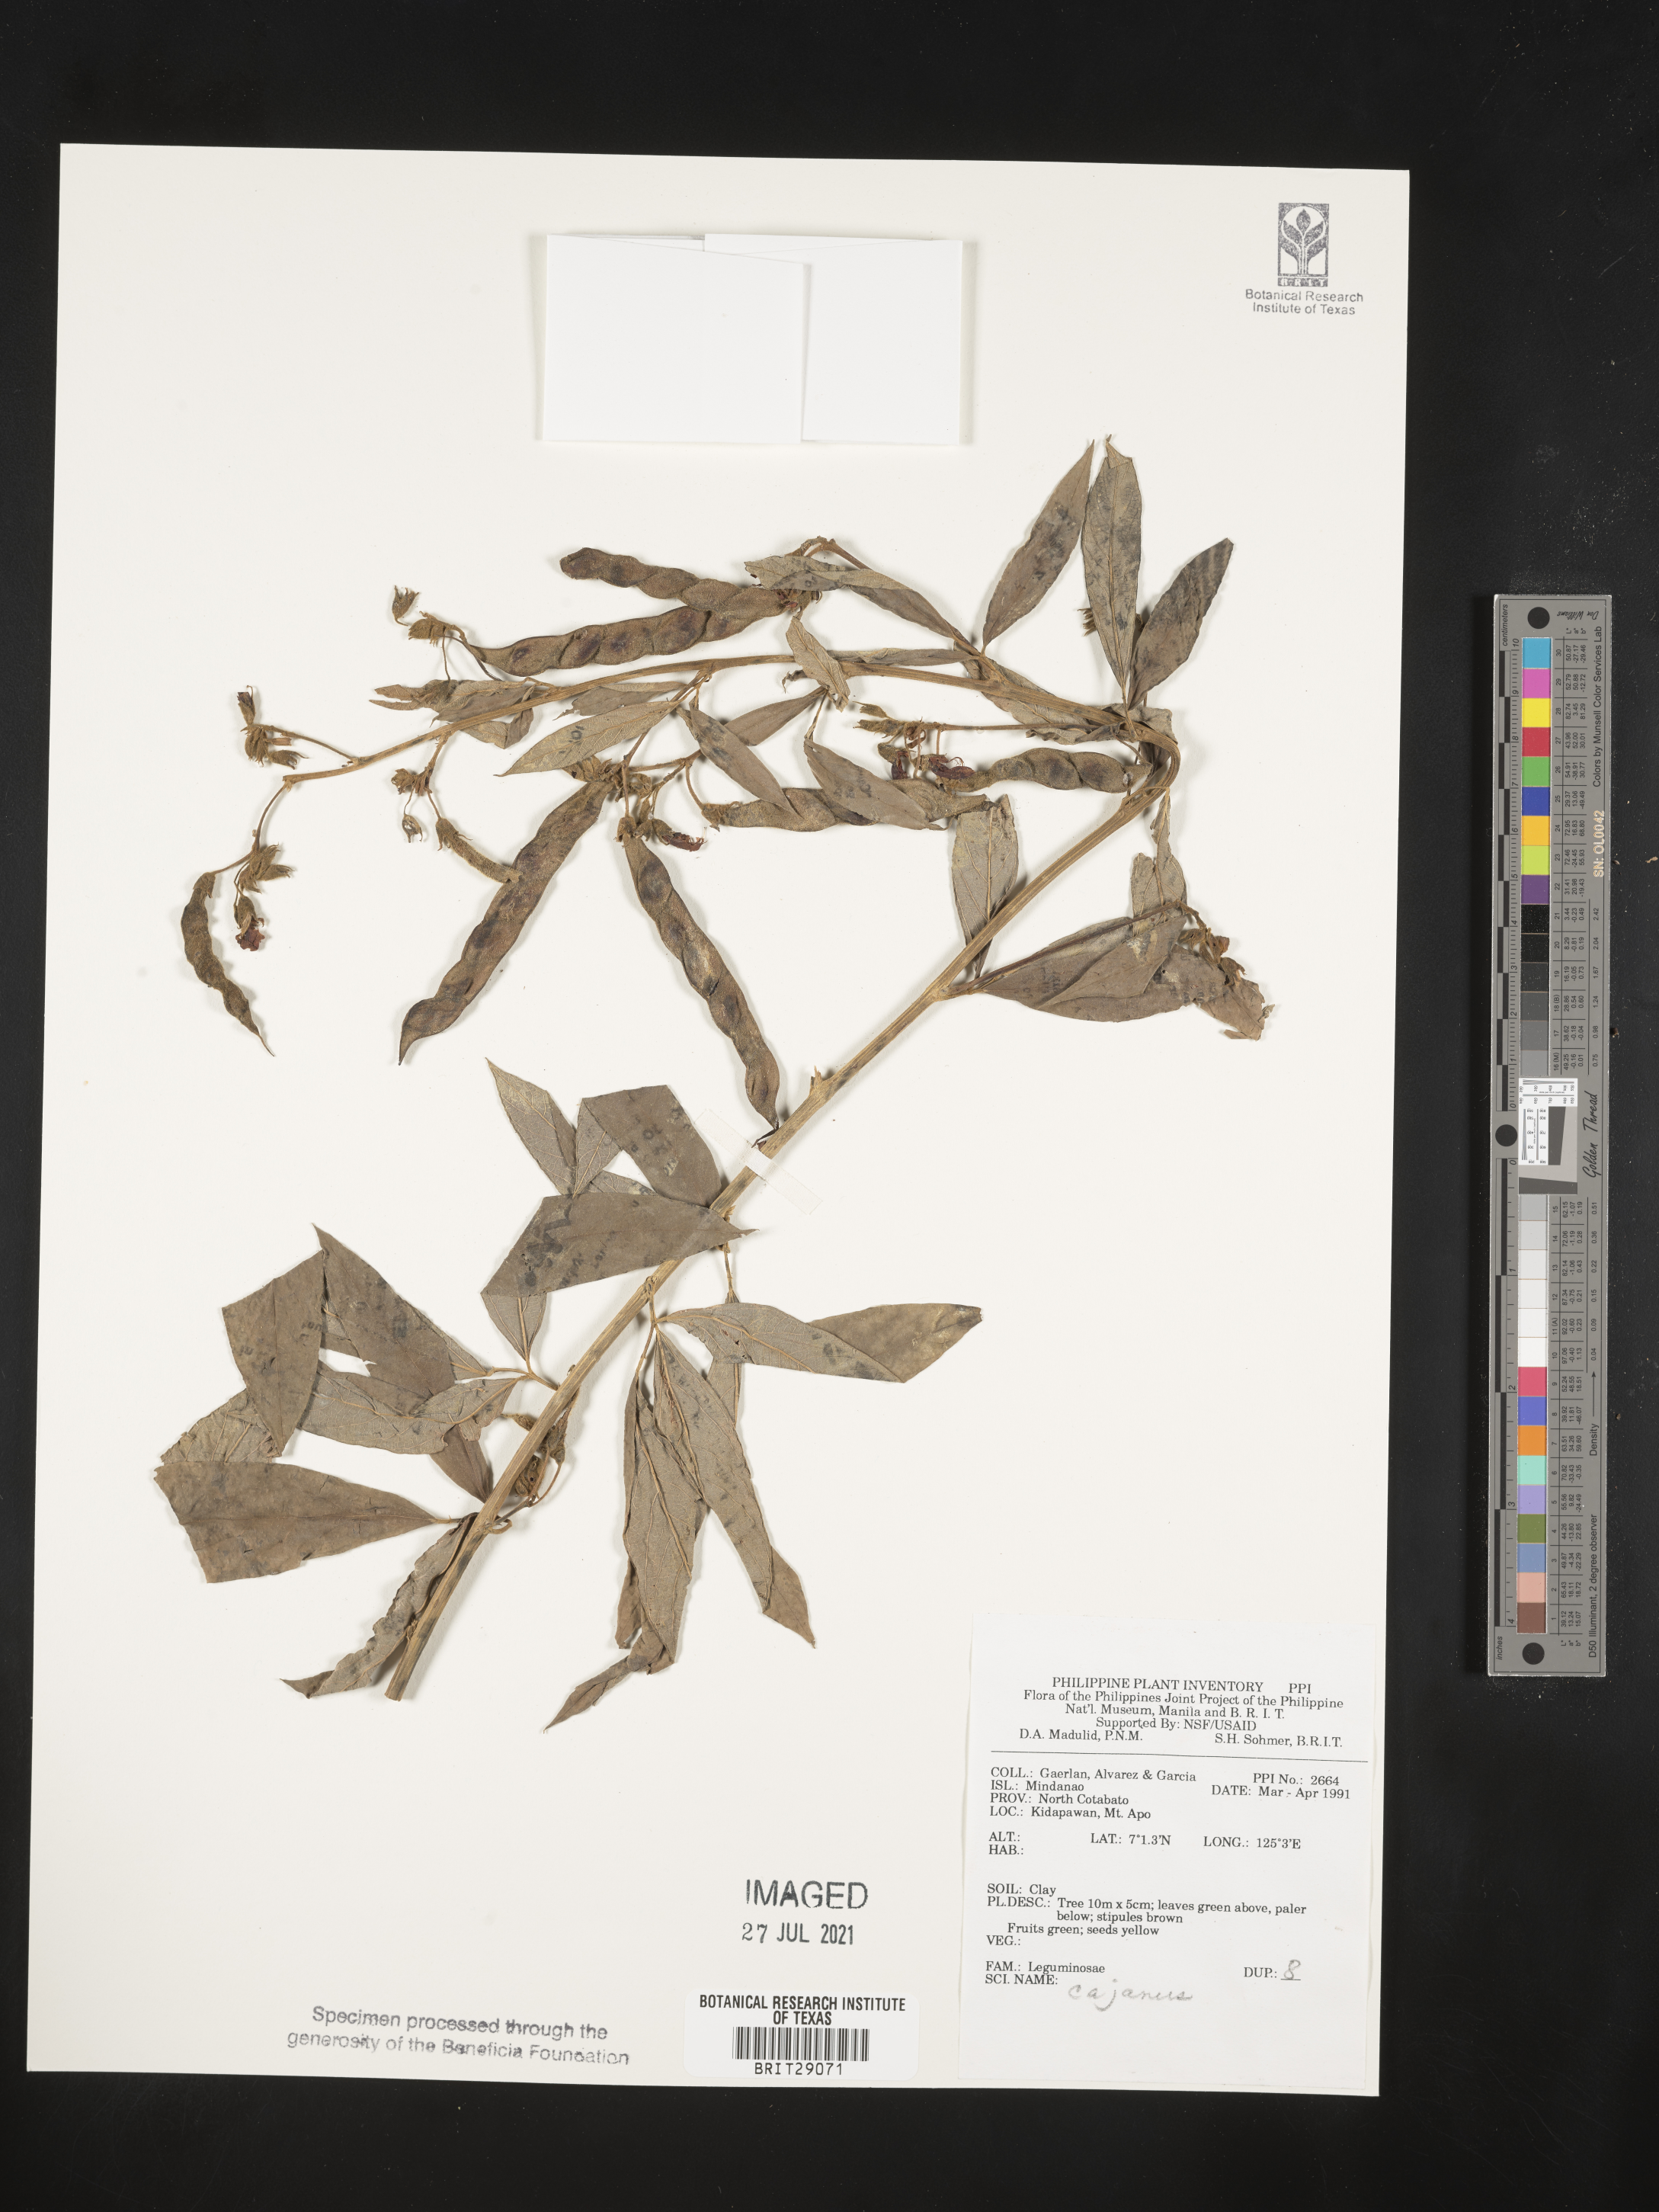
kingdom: Plantae
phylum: Tracheophyta
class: Magnoliopsida
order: Fabales
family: Fabaceae
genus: Cajanus
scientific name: Cajanus
